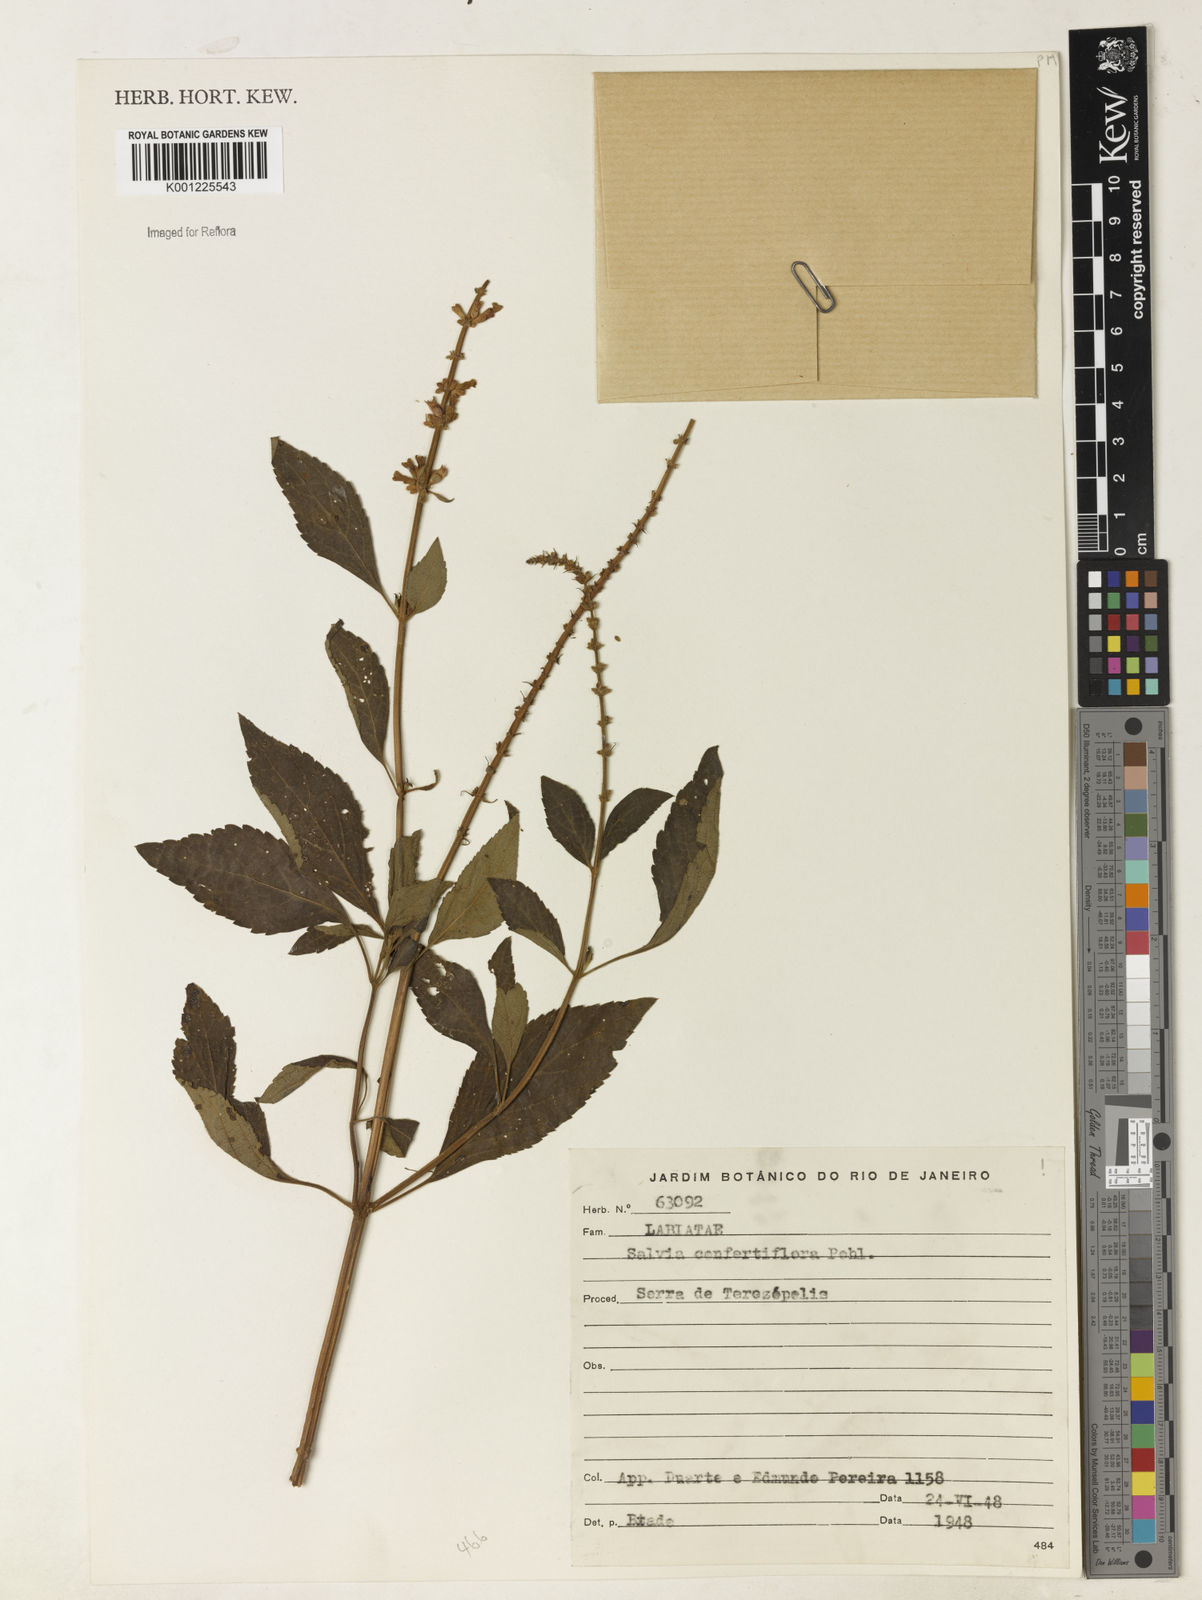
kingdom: Plantae
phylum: Tracheophyta
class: Magnoliopsida
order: Lamiales
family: Lamiaceae
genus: Salvia
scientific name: Salvia confertiflora
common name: Sabra-spike sage
